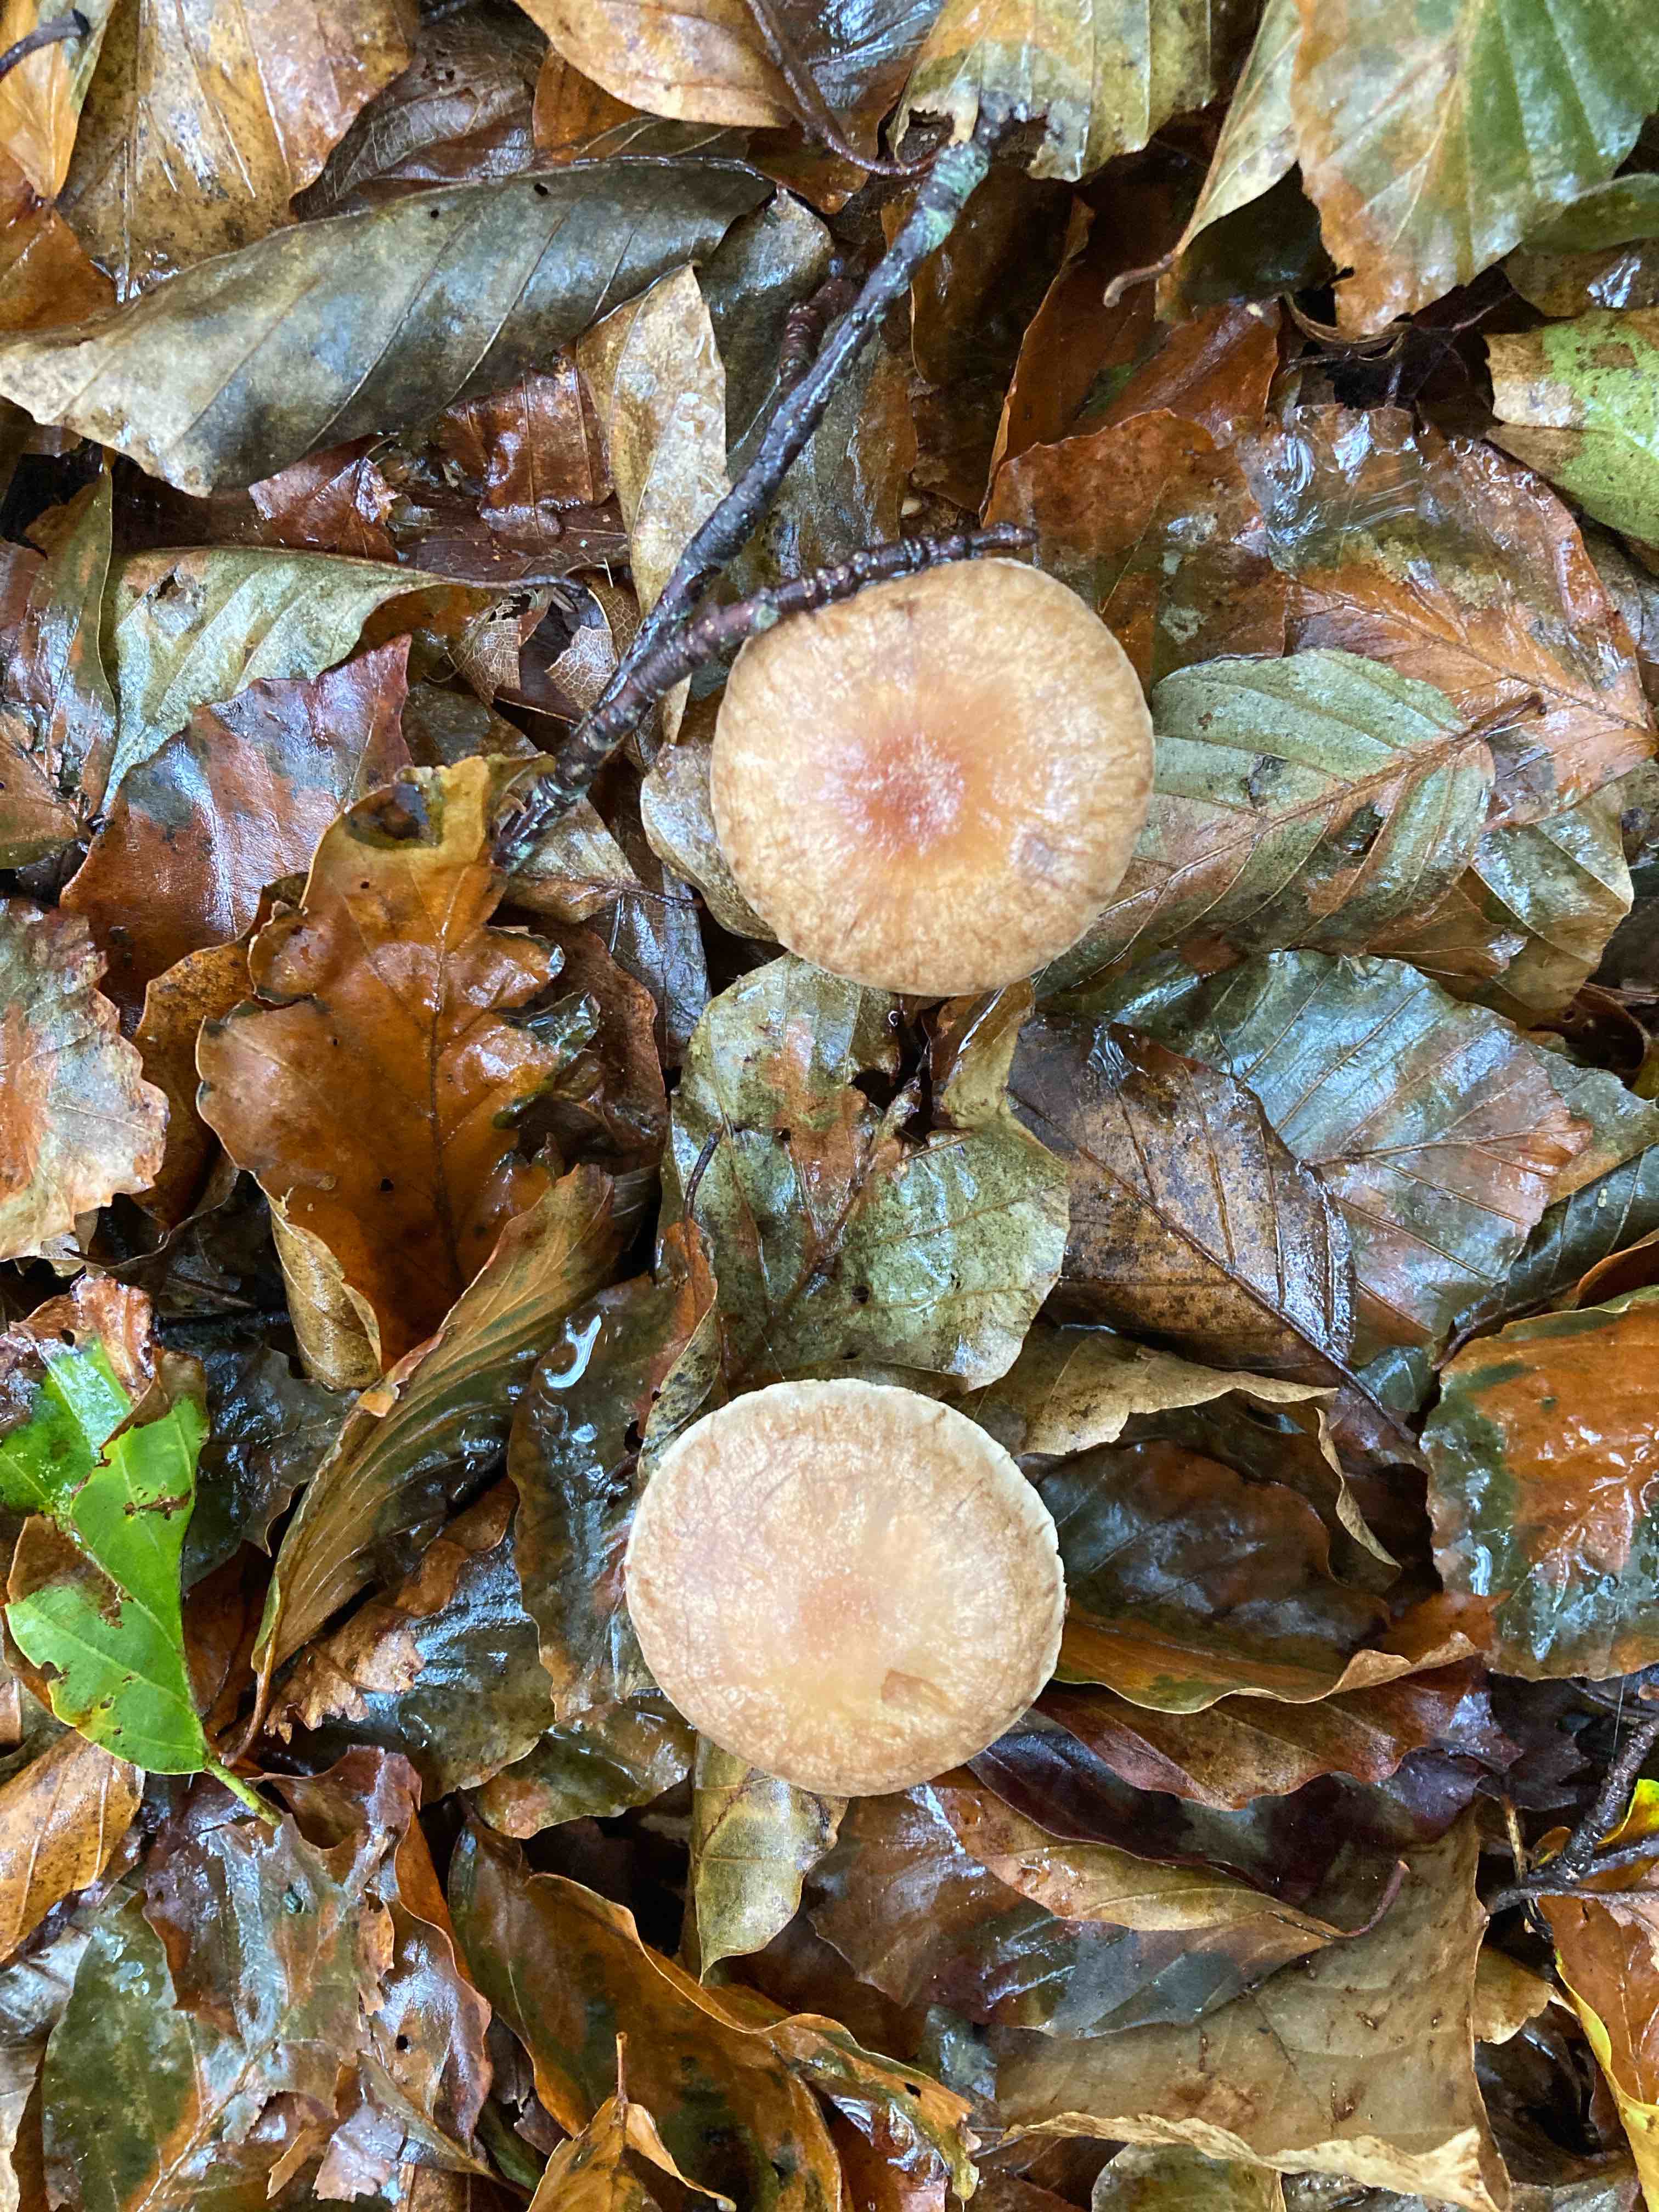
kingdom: Fungi
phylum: Basidiomycota
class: Agaricomycetes
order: Agaricales
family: Omphalotaceae
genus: Collybiopsis
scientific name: Collybiopsis peronata
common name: bestøvlet fladhat
